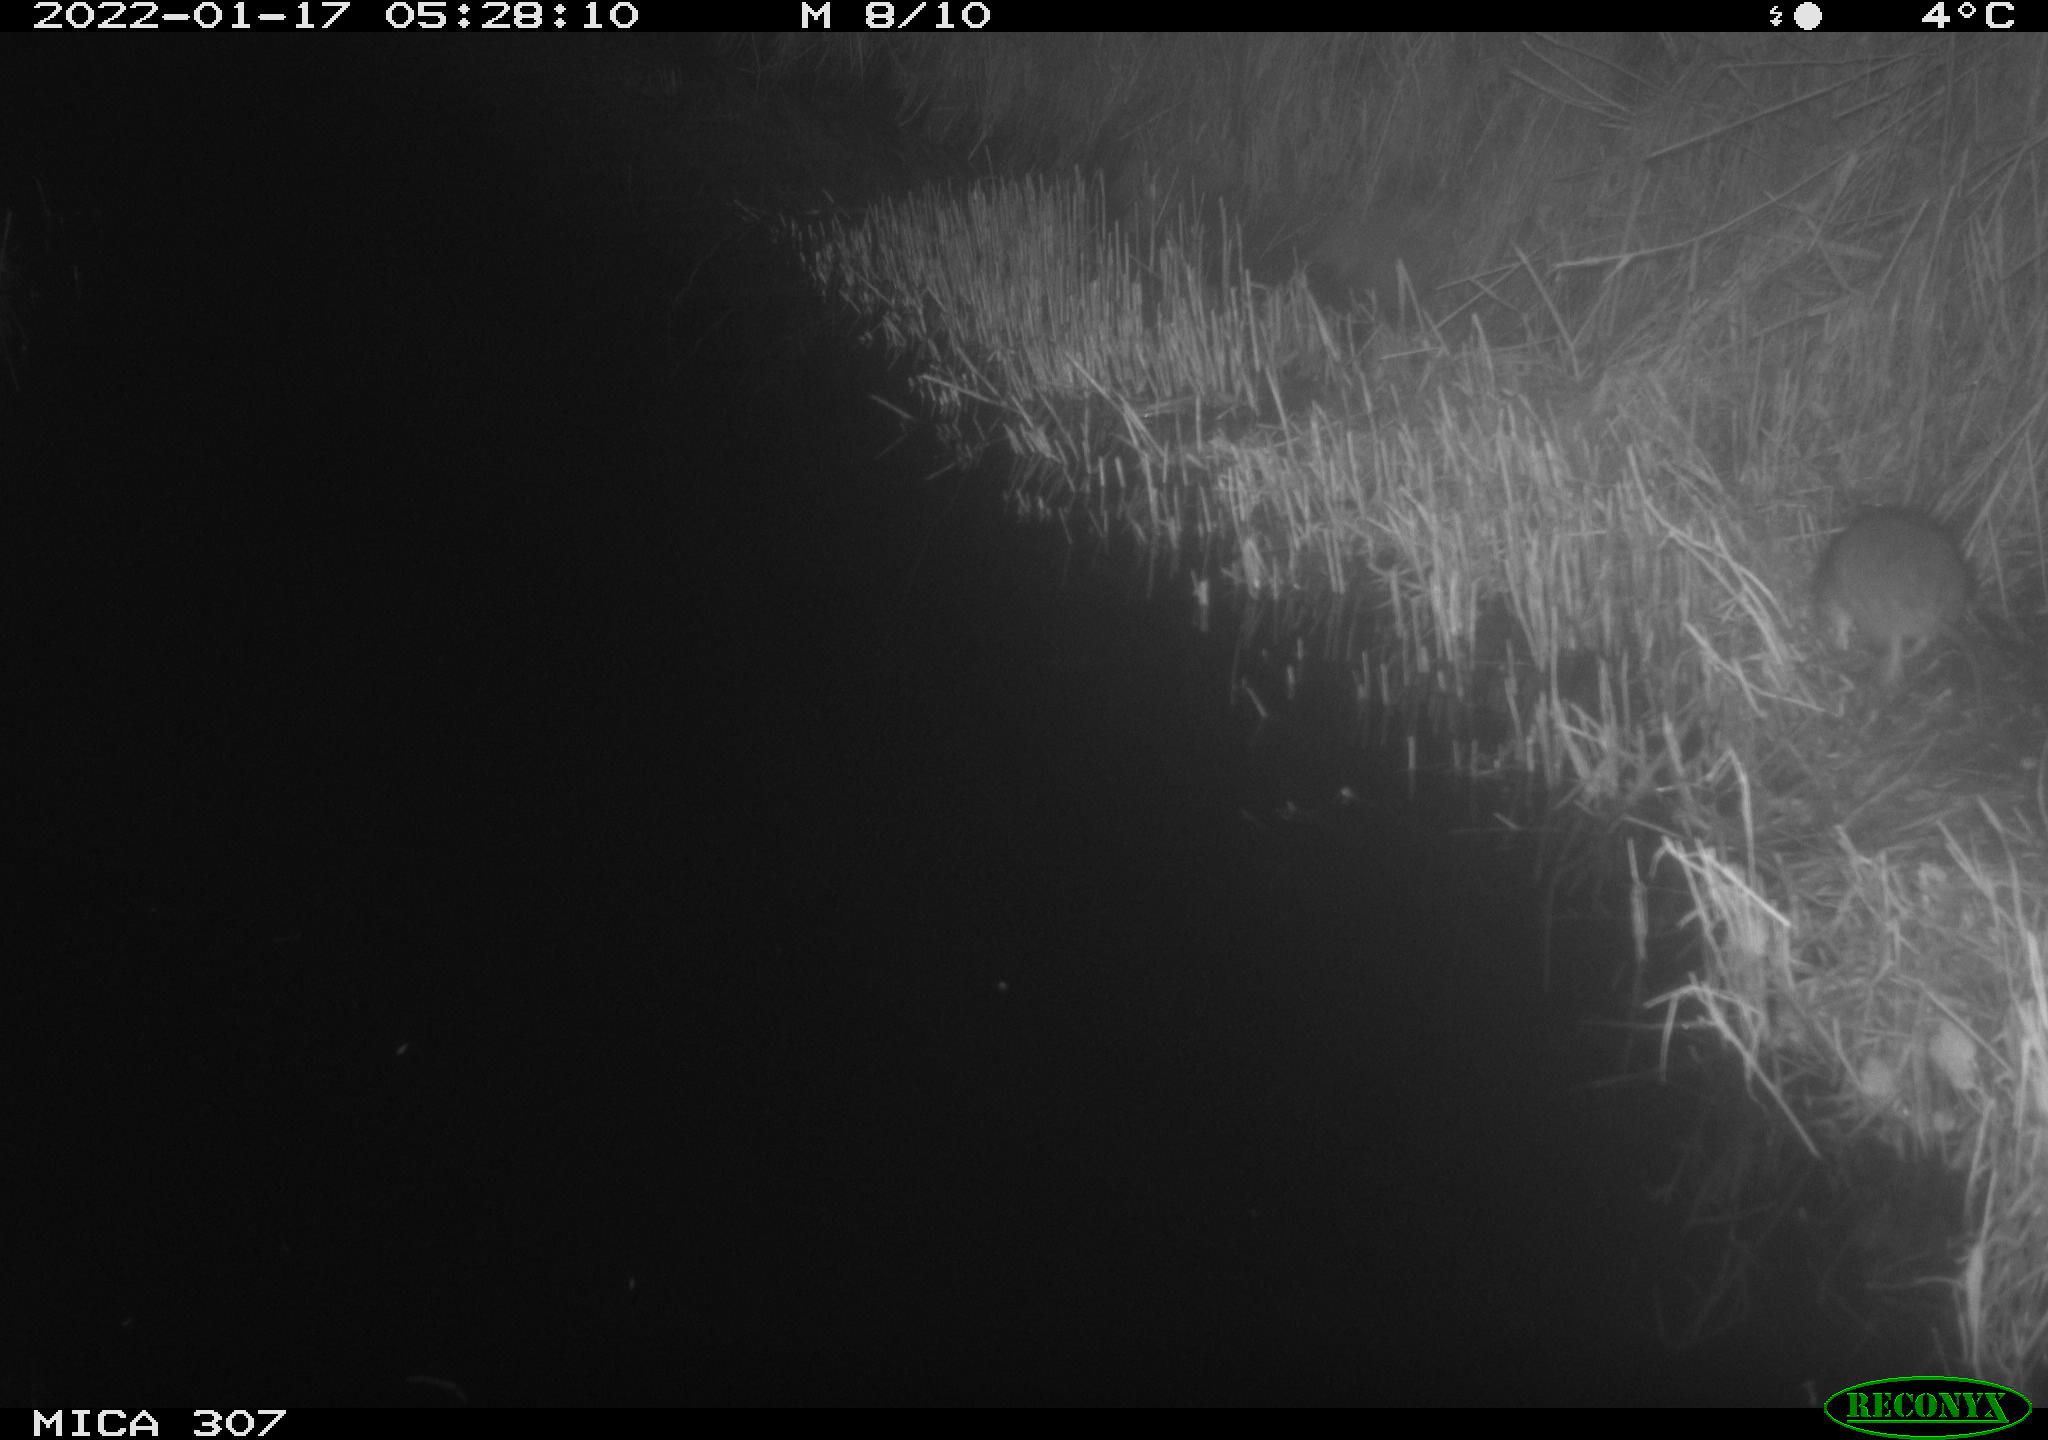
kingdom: Animalia
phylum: Chordata
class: Mammalia
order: Rodentia
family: Muridae
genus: Rattus
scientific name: Rattus norvegicus
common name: Brown rat
